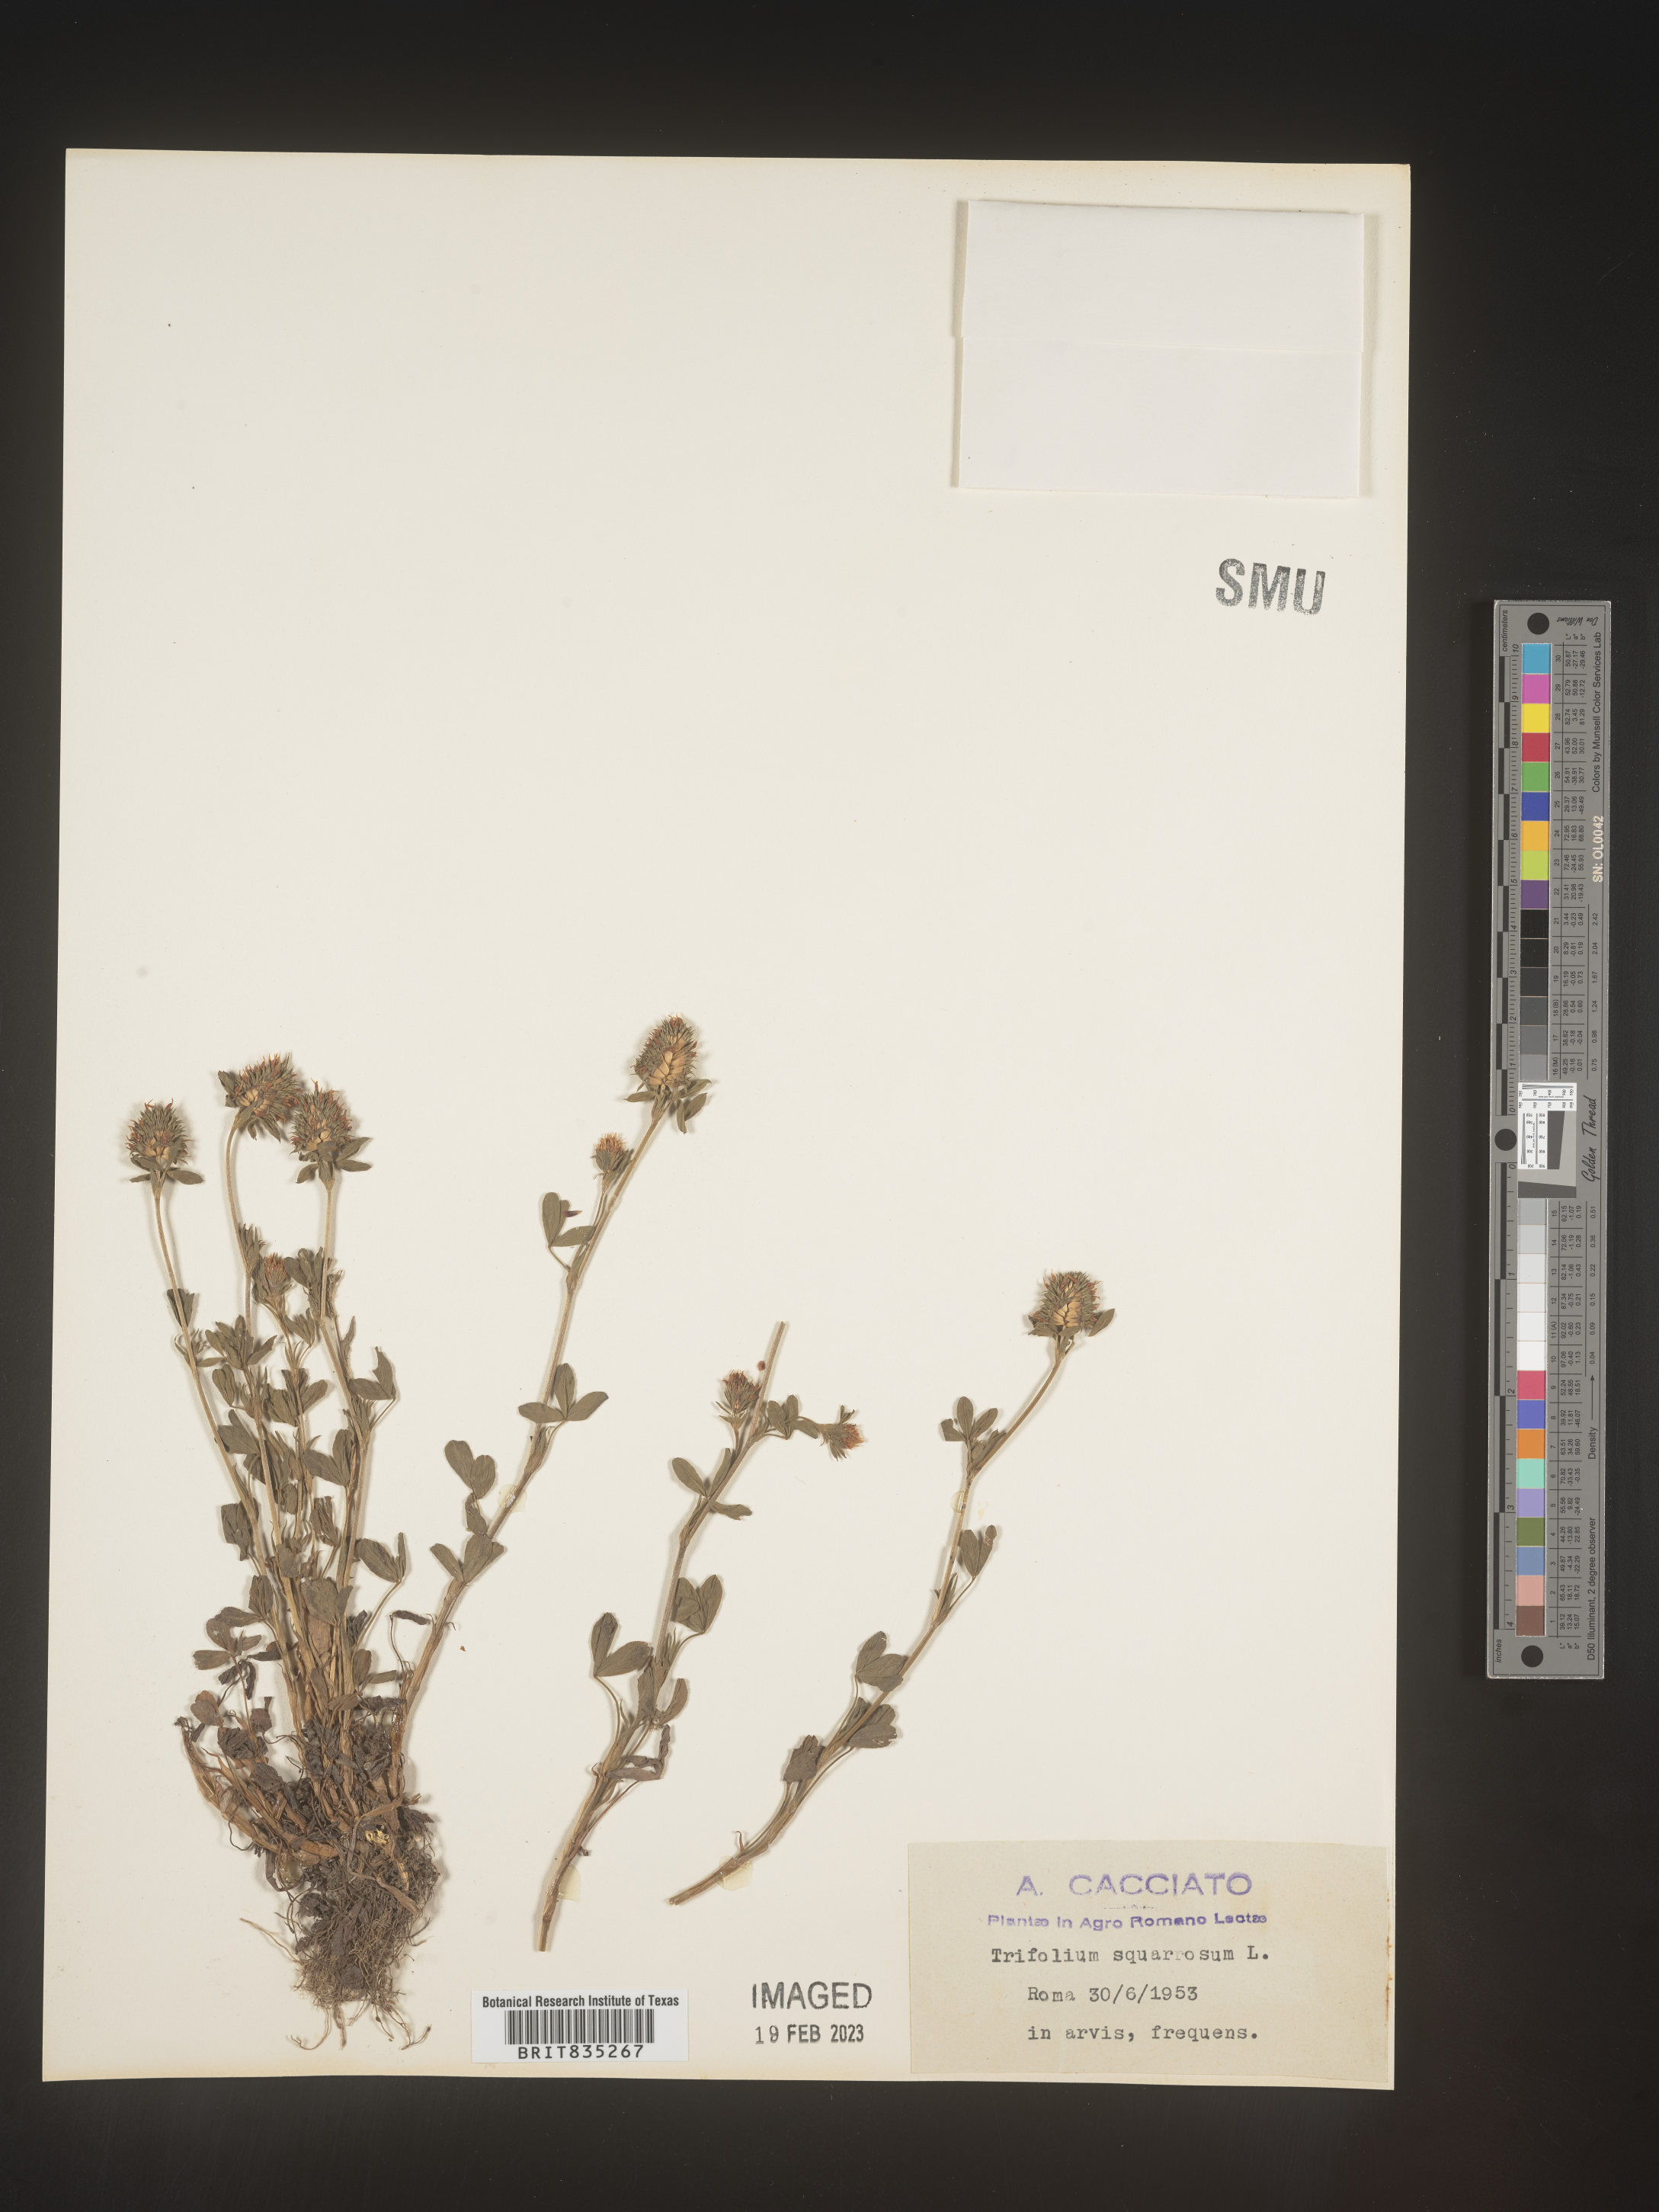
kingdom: Plantae
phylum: Tracheophyta
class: Magnoliopsida
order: Fabales
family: Fabaceae
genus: Trifolium
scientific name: Trifolium
